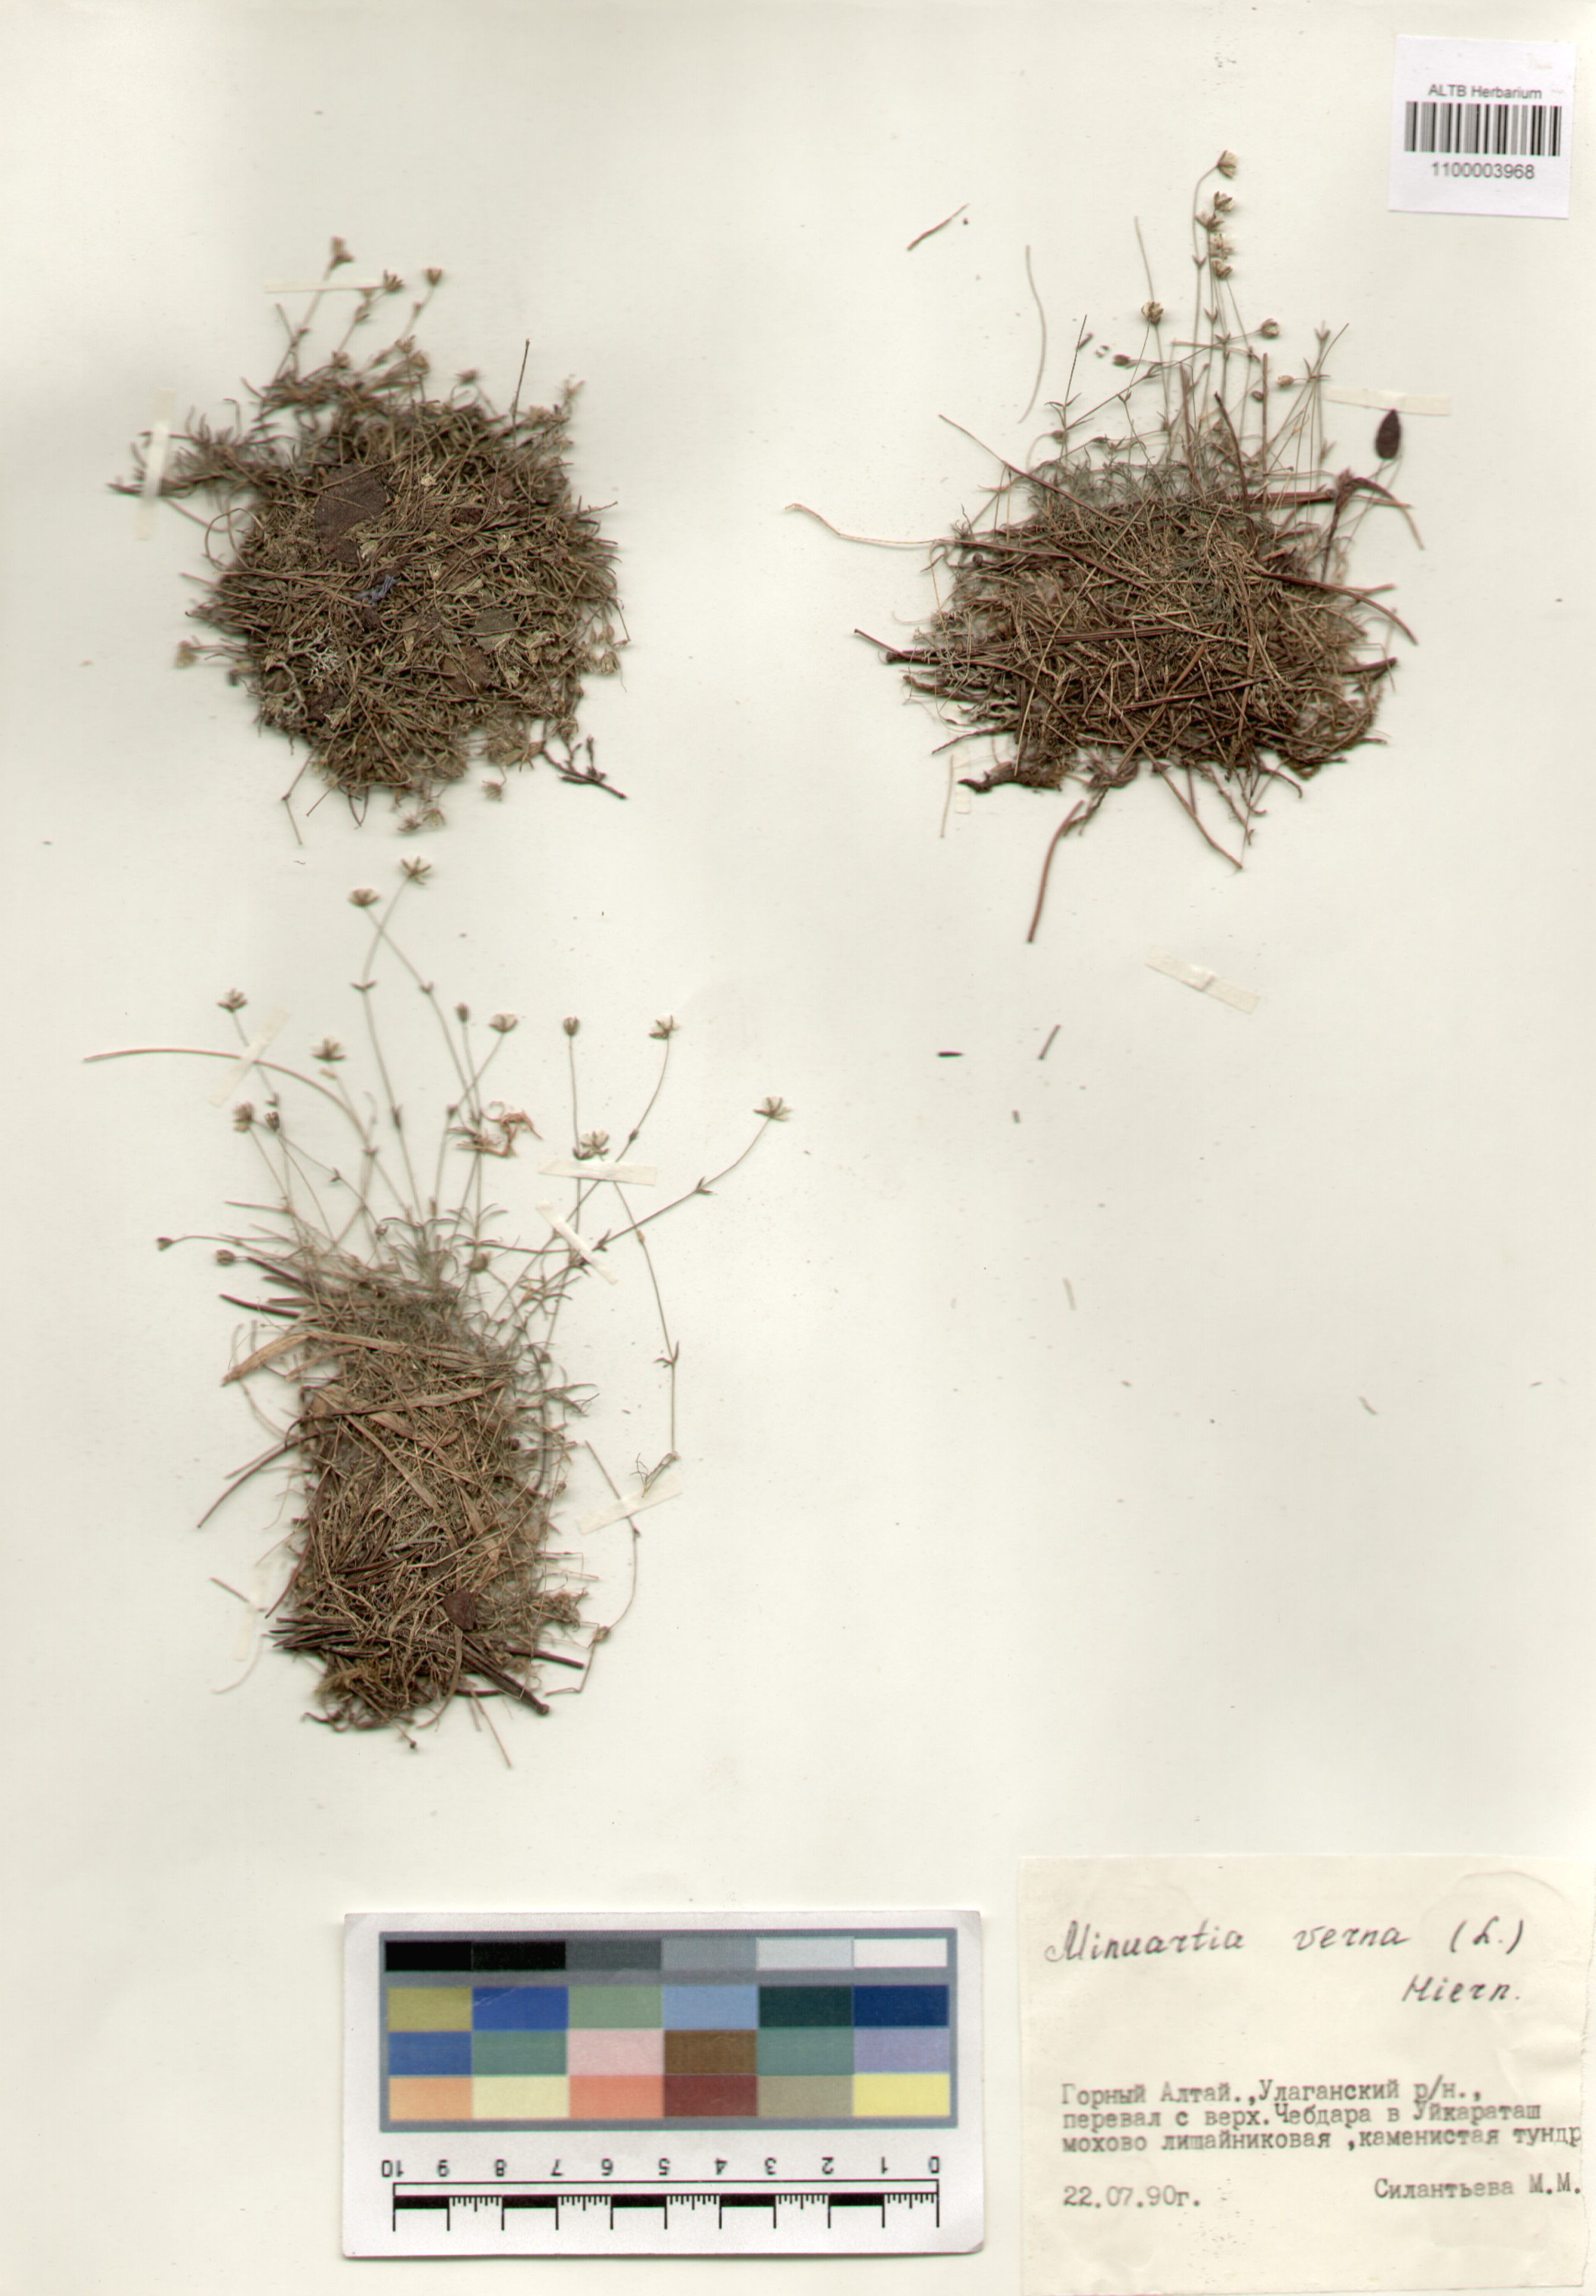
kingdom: Plantae
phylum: Tracheophyta
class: Magnoliopsida
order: Caryophyllales
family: Caryophyllaceae
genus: Sabulina
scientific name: Sabulina verna
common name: Spring sandwort
